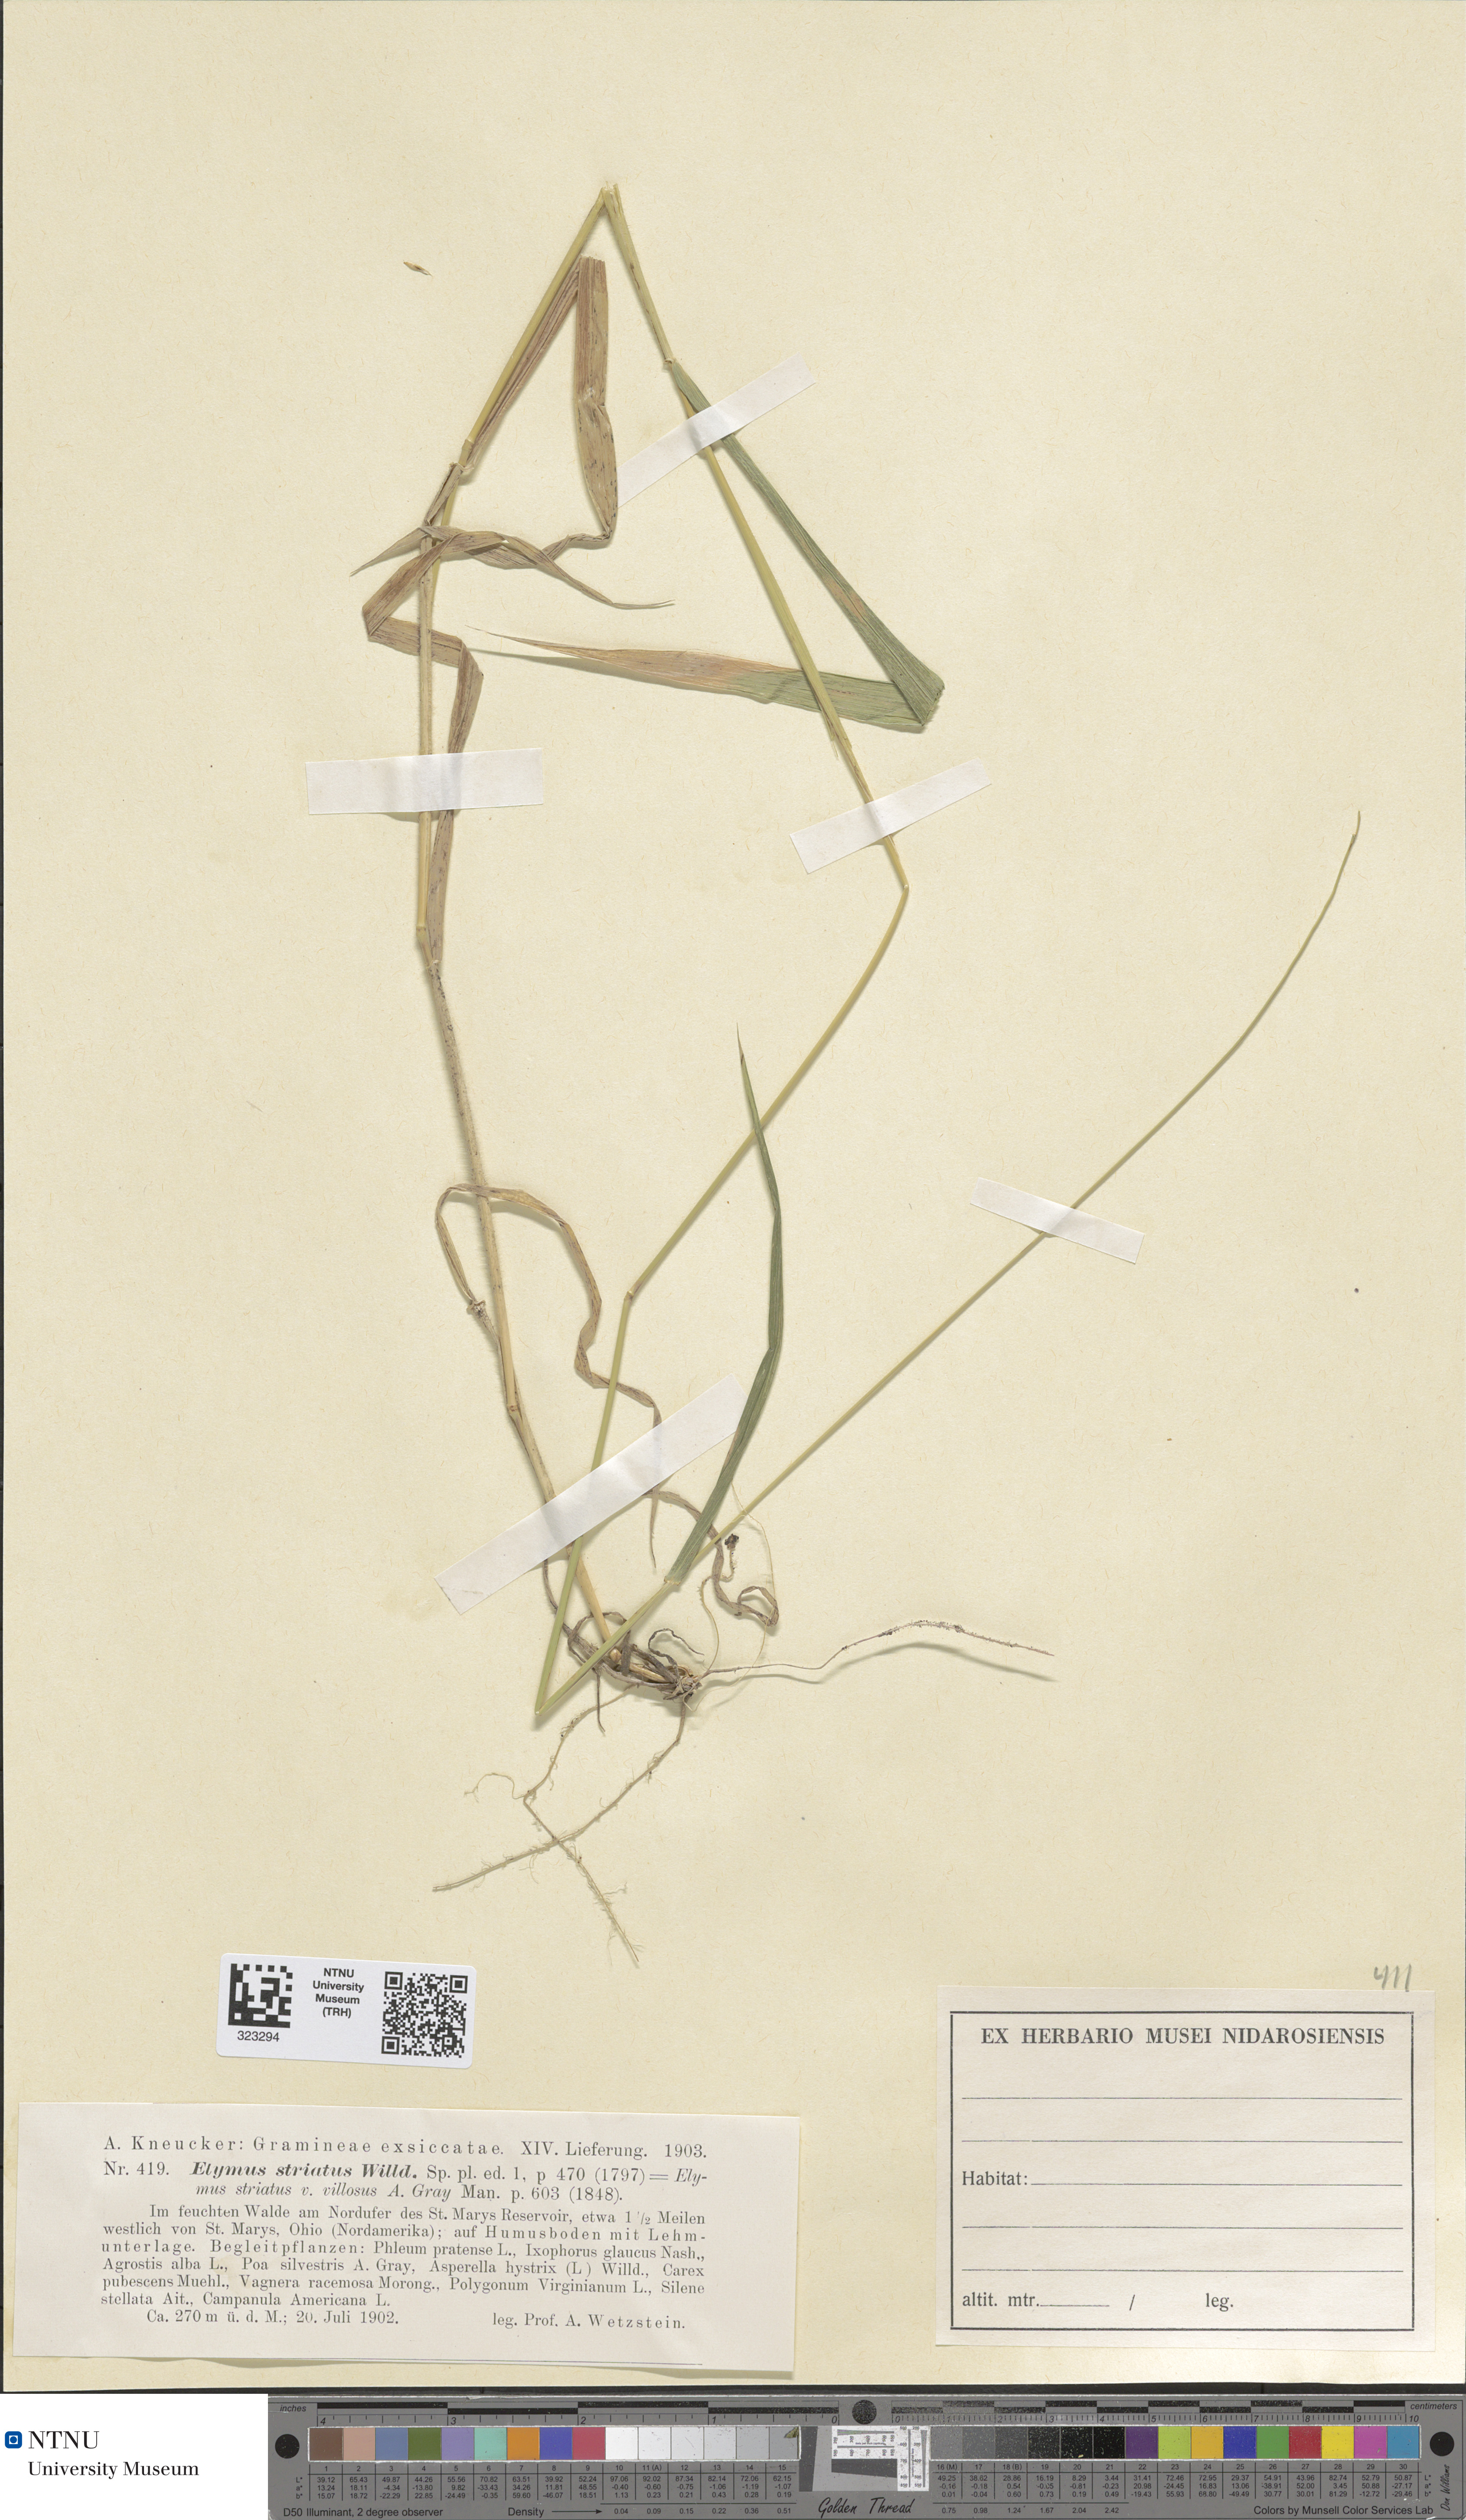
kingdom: Plantae
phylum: Tracheophyta
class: Liliopsida
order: Poales
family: Poaceae
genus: Elymus
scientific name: Elymus virginicus
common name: Common eastern wildrye
